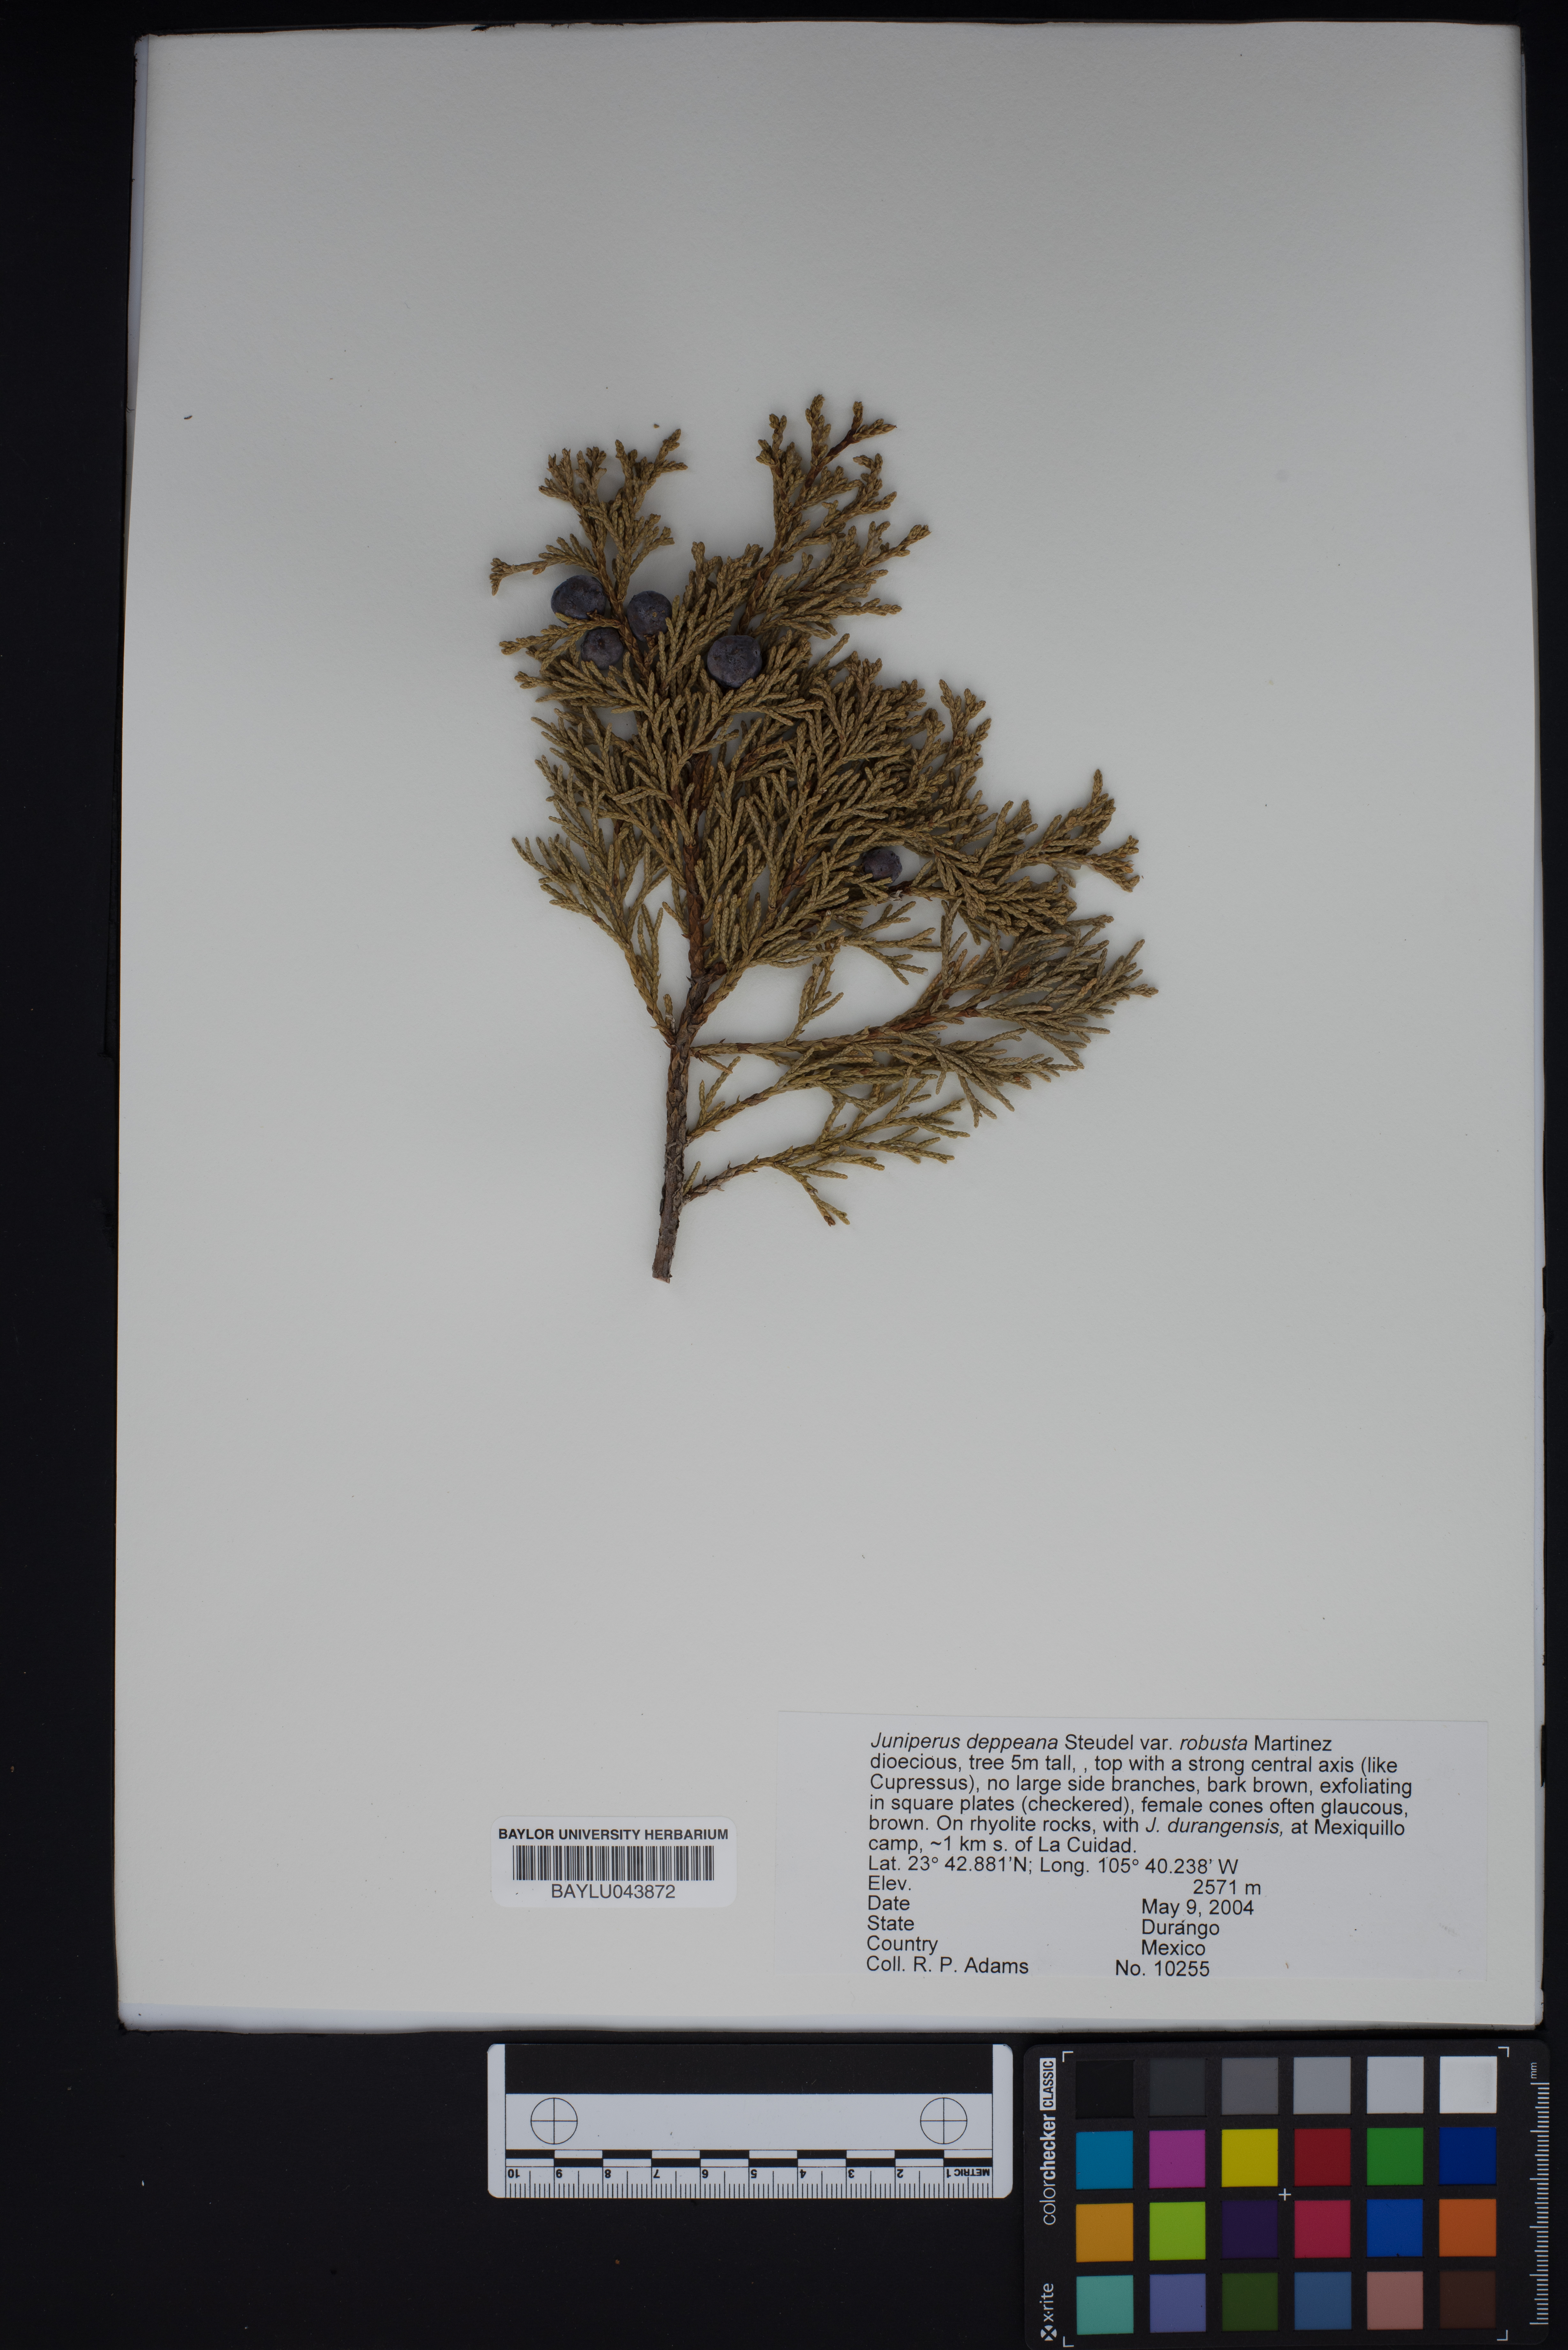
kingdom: Plantae
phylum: Tracheophyta
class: Pinopsida
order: Pinales
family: Cupressaceae
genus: Juniperus
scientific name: Juniperus deppeana
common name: Alligator juniper
